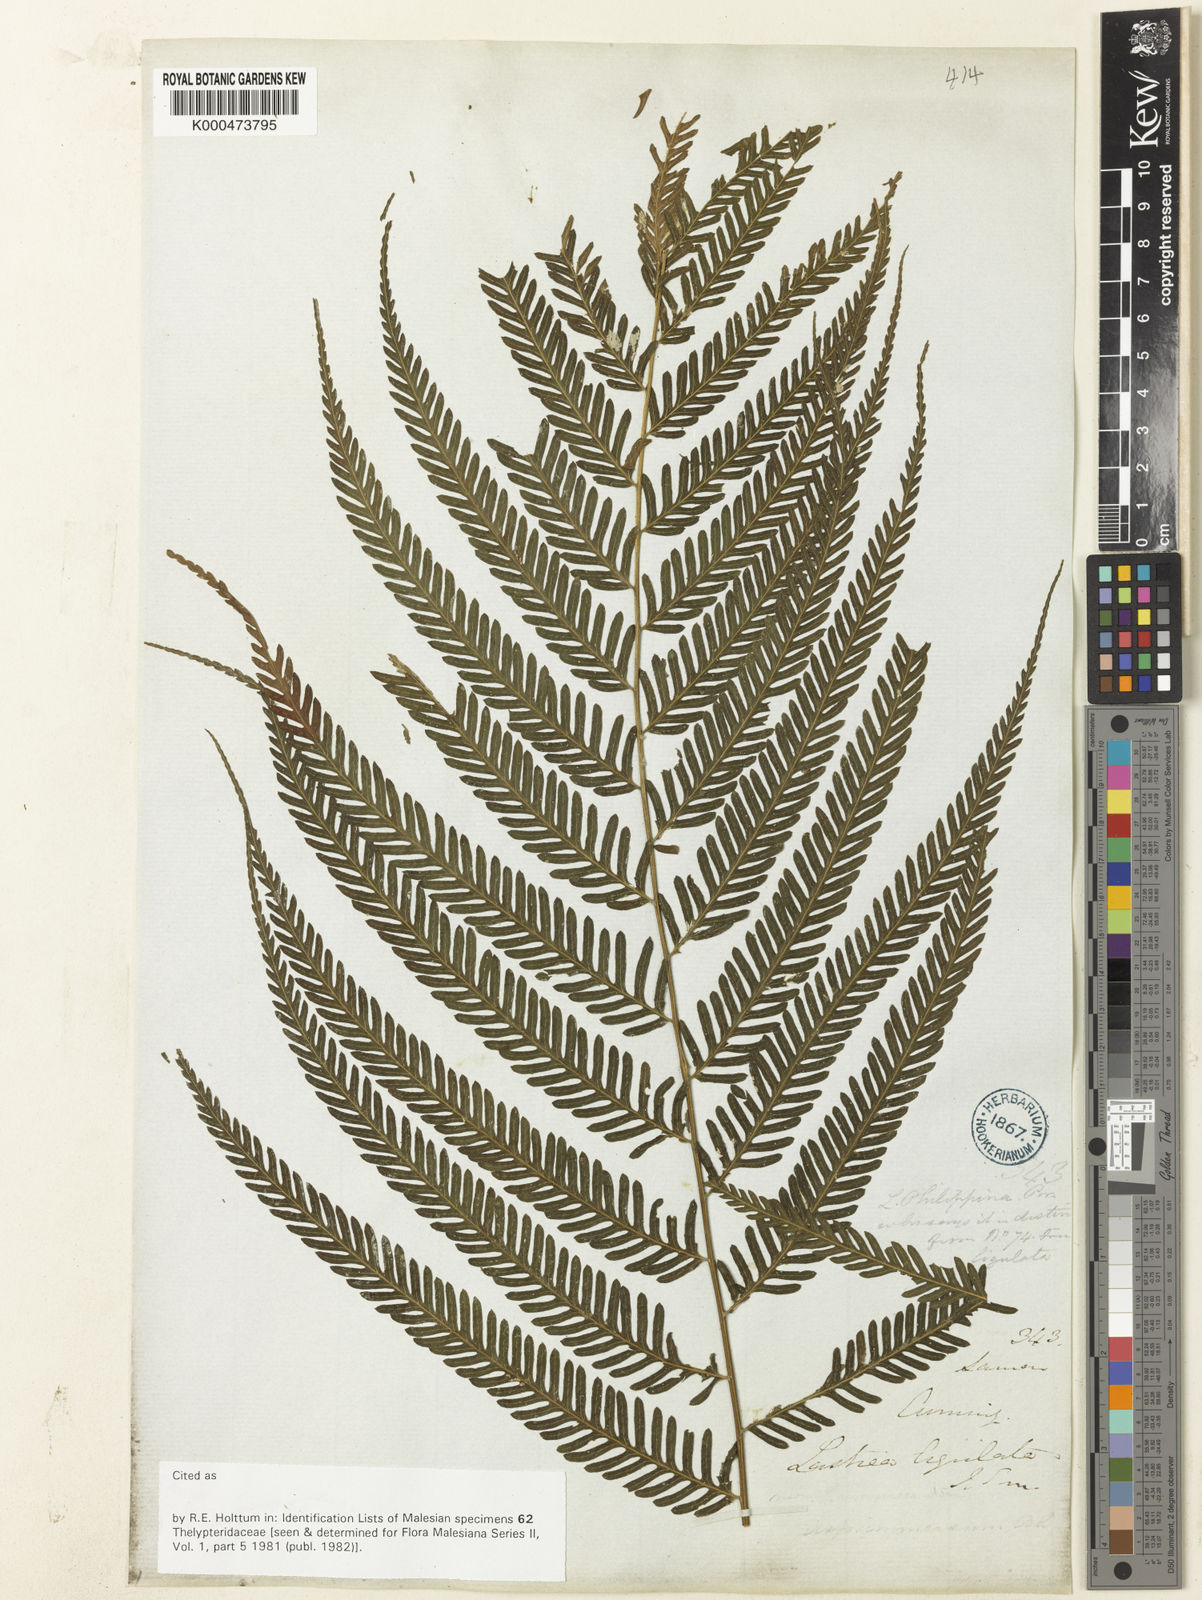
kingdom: Plantae
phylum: Tracheophyta
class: Polypodiopsida
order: Polypodiales
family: Thelypteridaceae
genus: Plesioneuron
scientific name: Plesioneuron ligulatum
